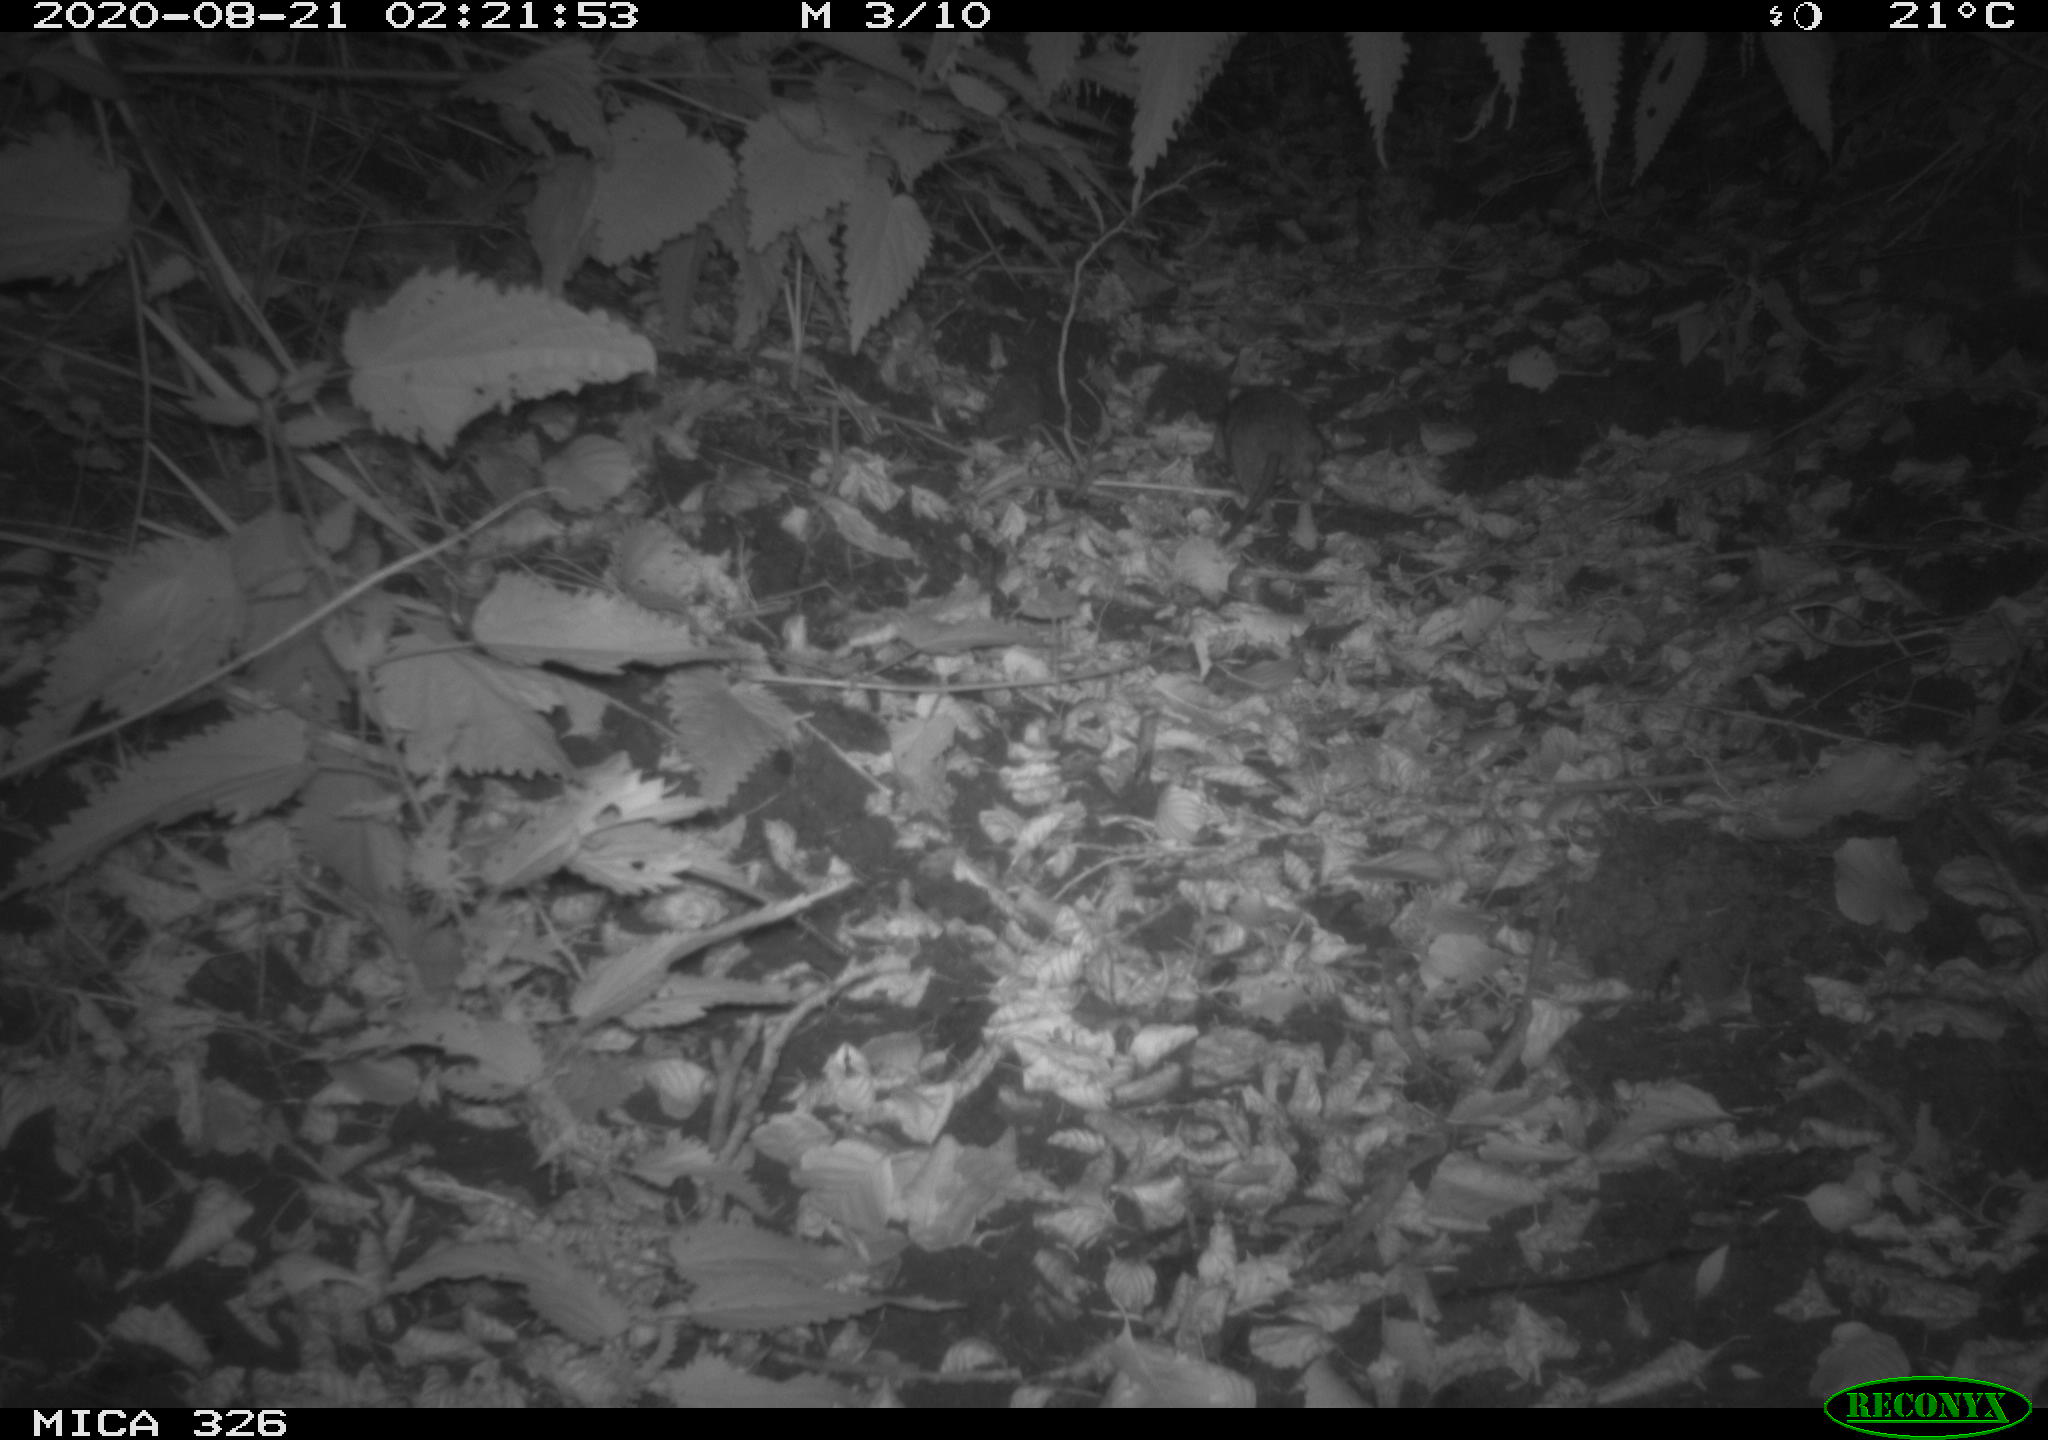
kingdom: Animalia
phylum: Chordata
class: Mammalia
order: Rodentia
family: Muridae
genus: Rattus
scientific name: Rattus norvegicus
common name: Brown rat
